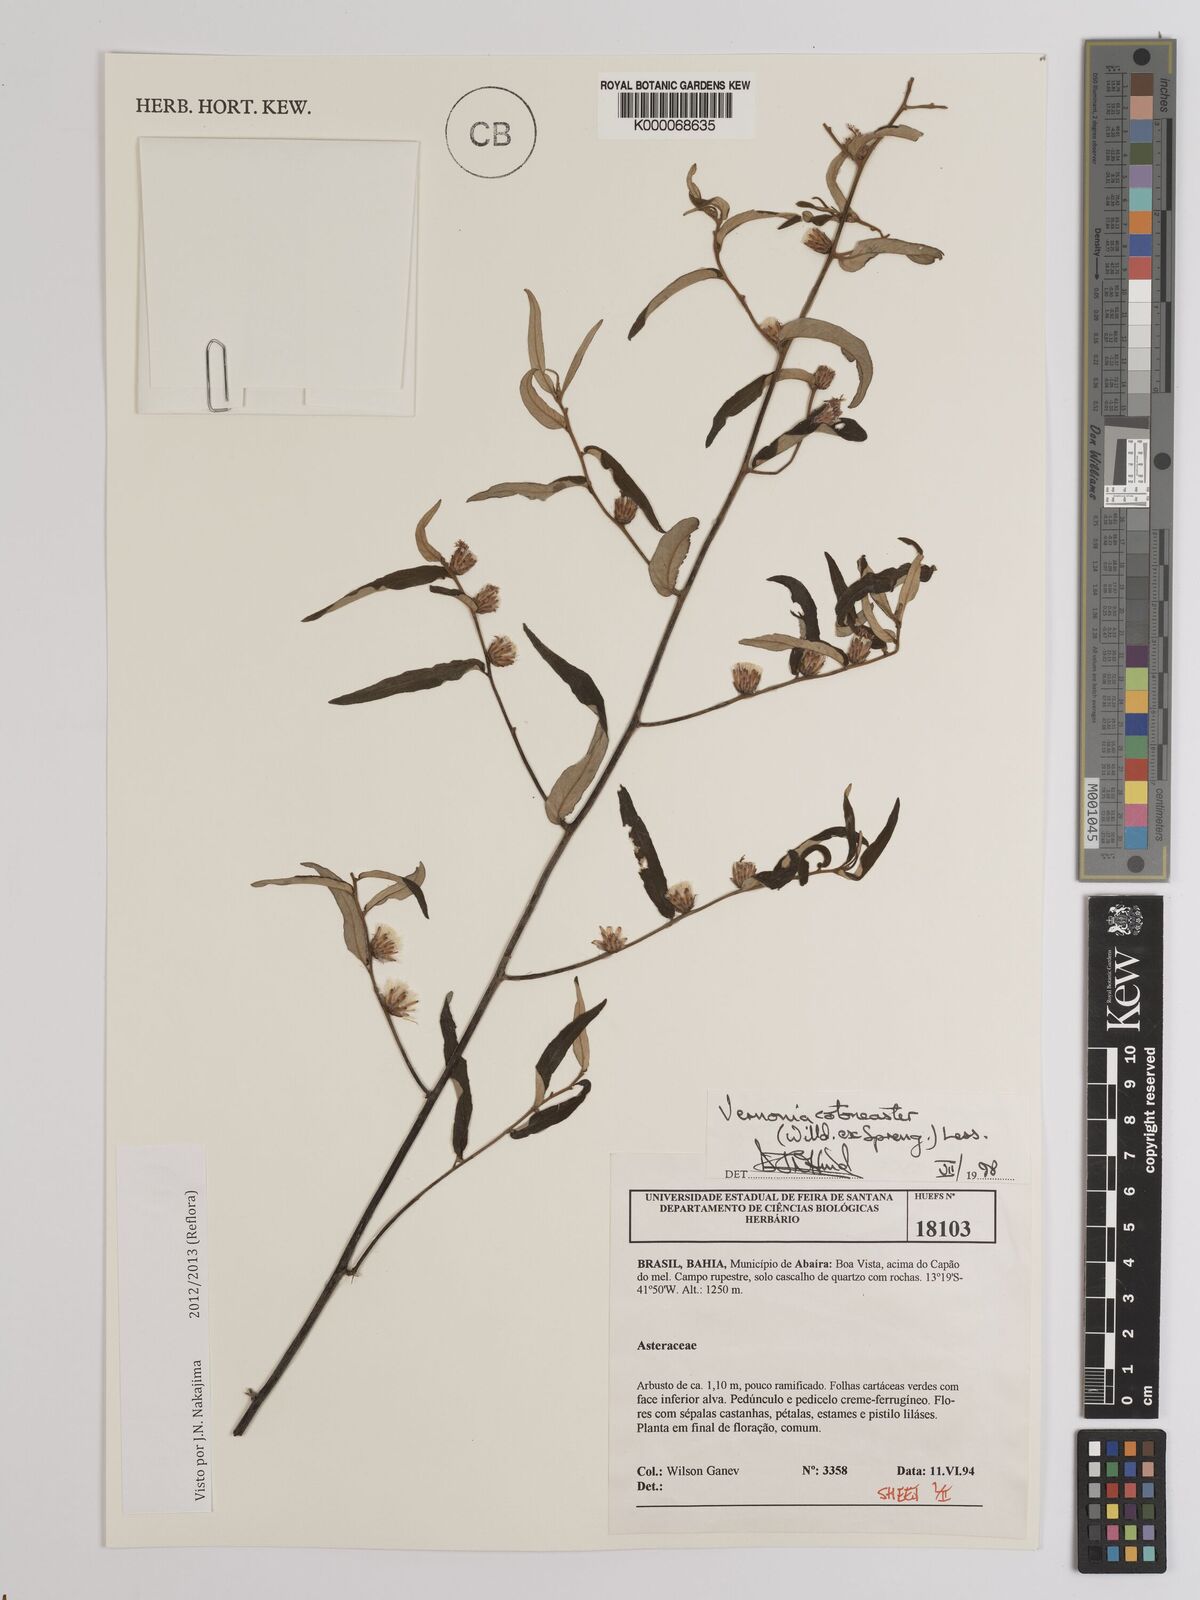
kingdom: Plantae
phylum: Tracheophyta
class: Magnoliopsida
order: Asterales
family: Asteraceae
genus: Lepidaploa
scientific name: Lepidaploa cotoneaster
